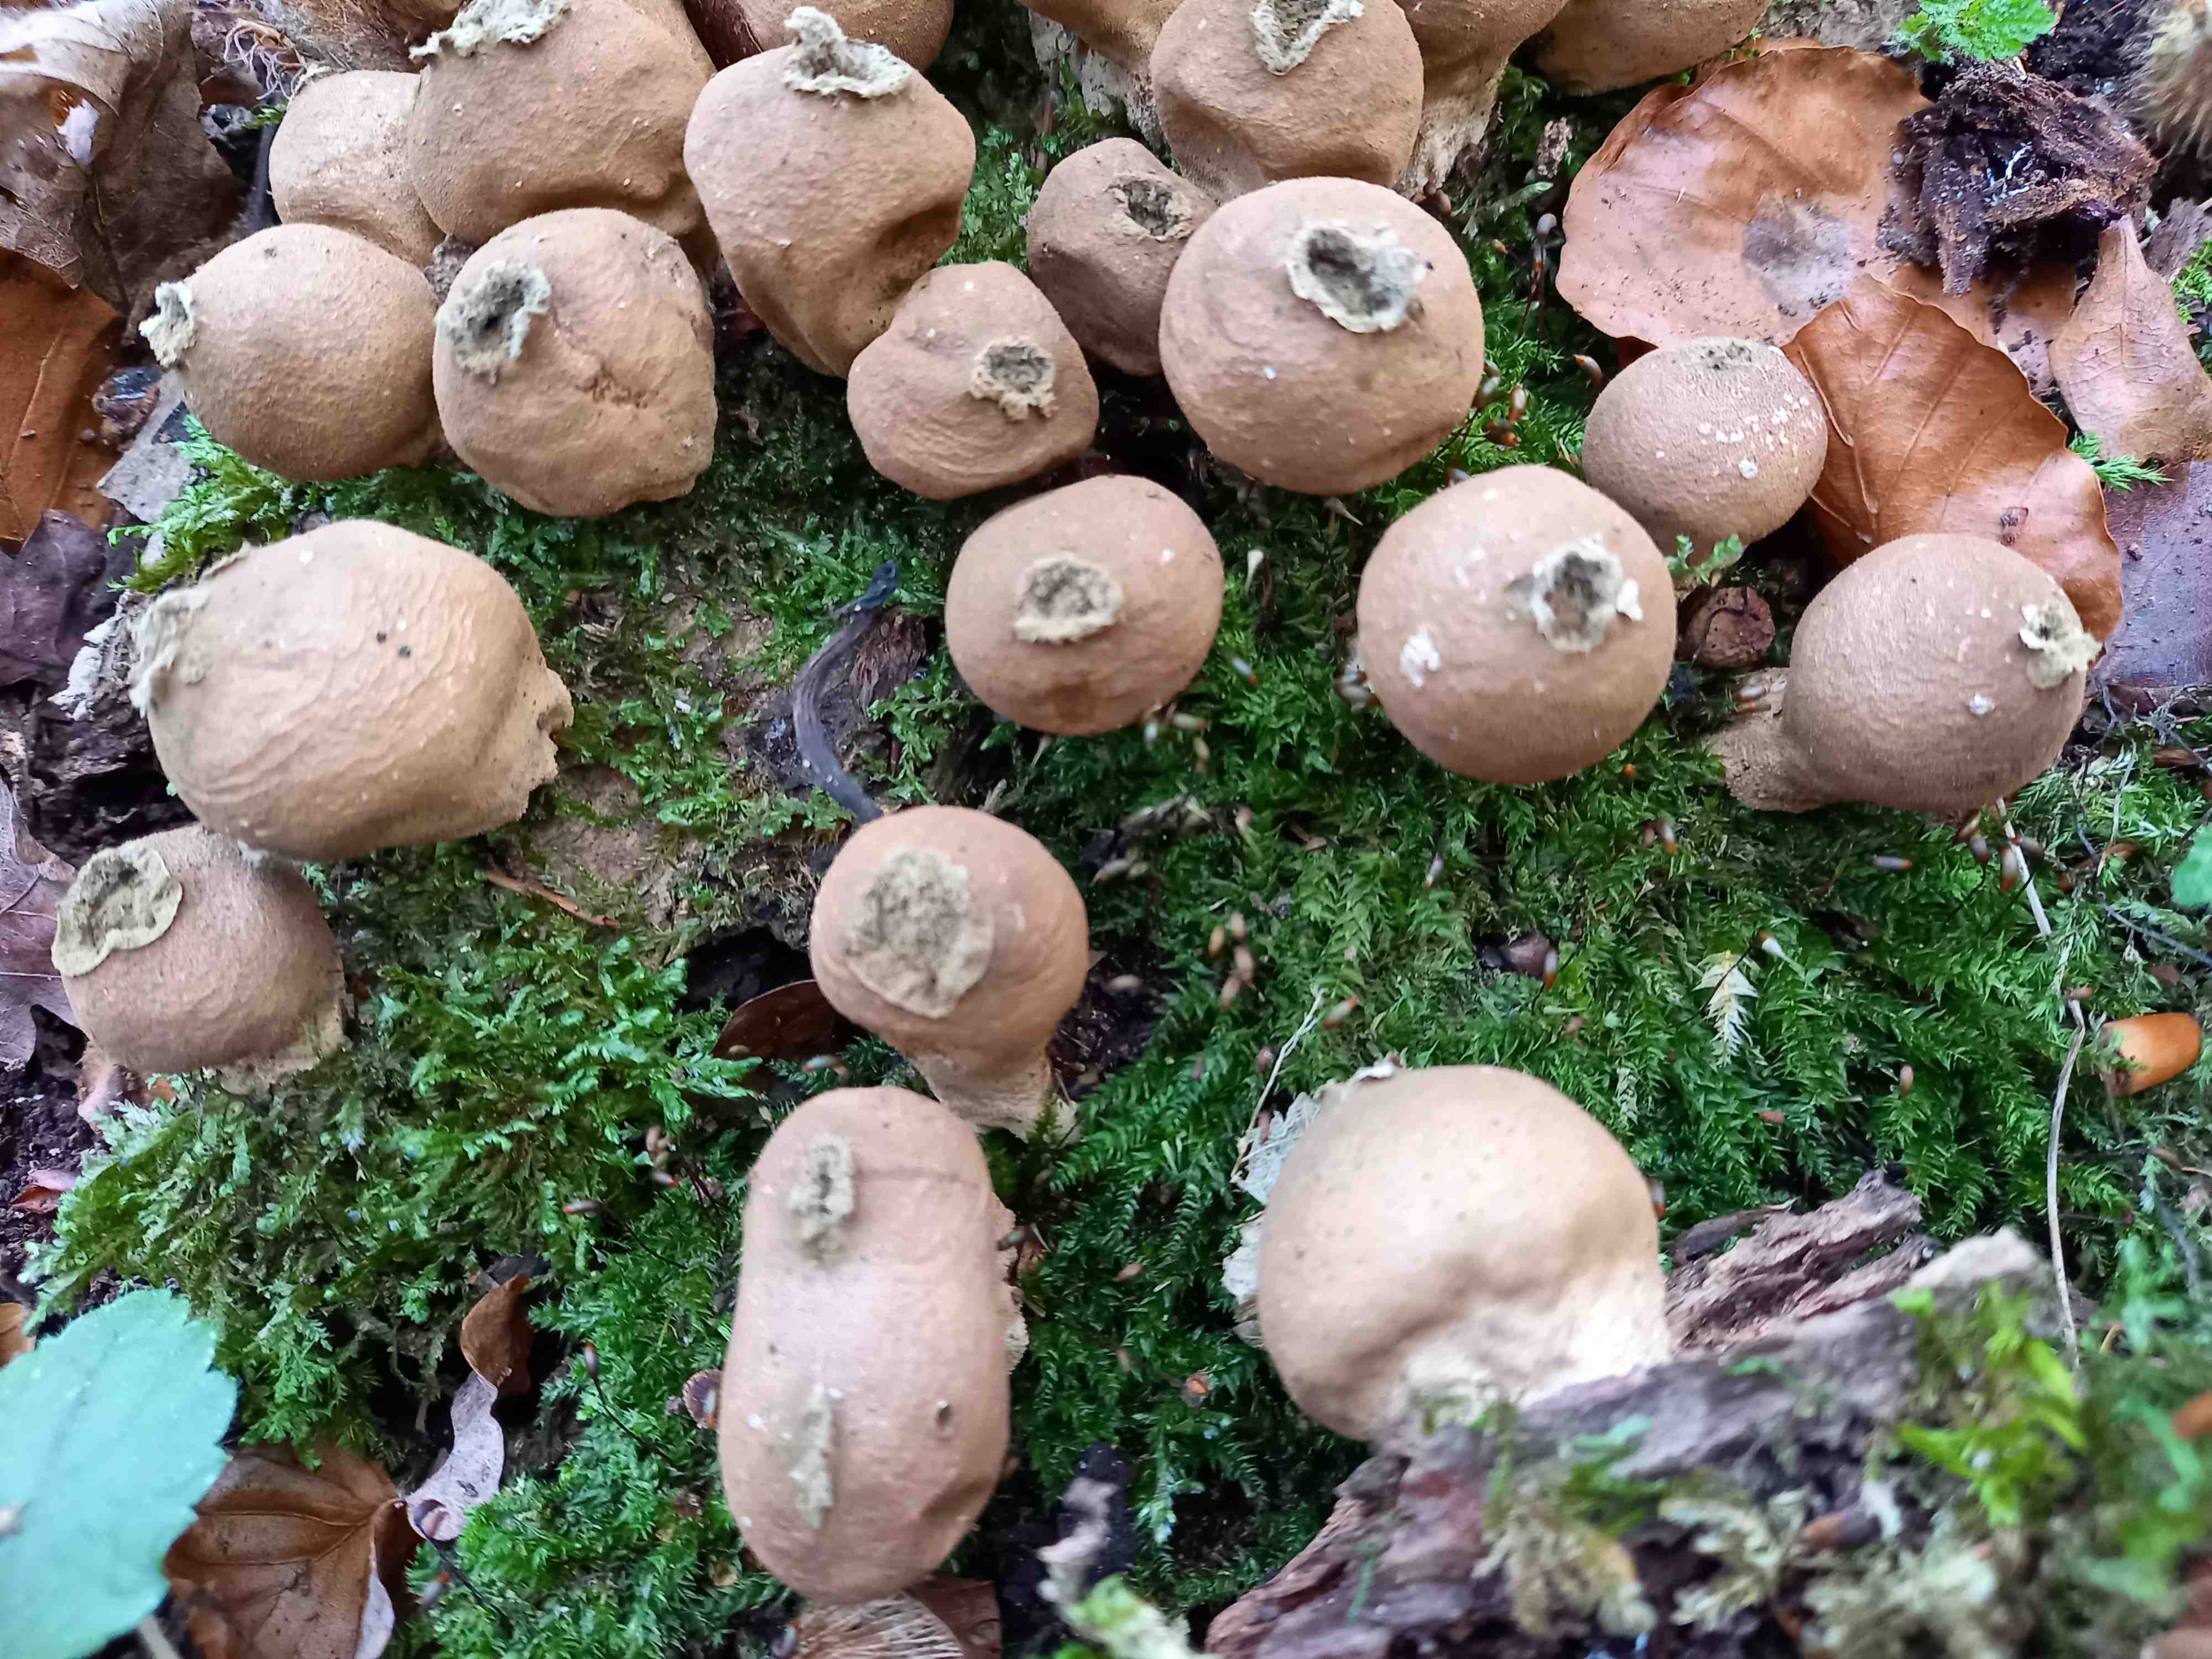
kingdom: Fungi
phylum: Basidiomycota
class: Agaricomycetes
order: Agaricales
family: Lycoperdaceae
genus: Apioperdon
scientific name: Apioperdon pyriforme
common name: pære-støvbold
